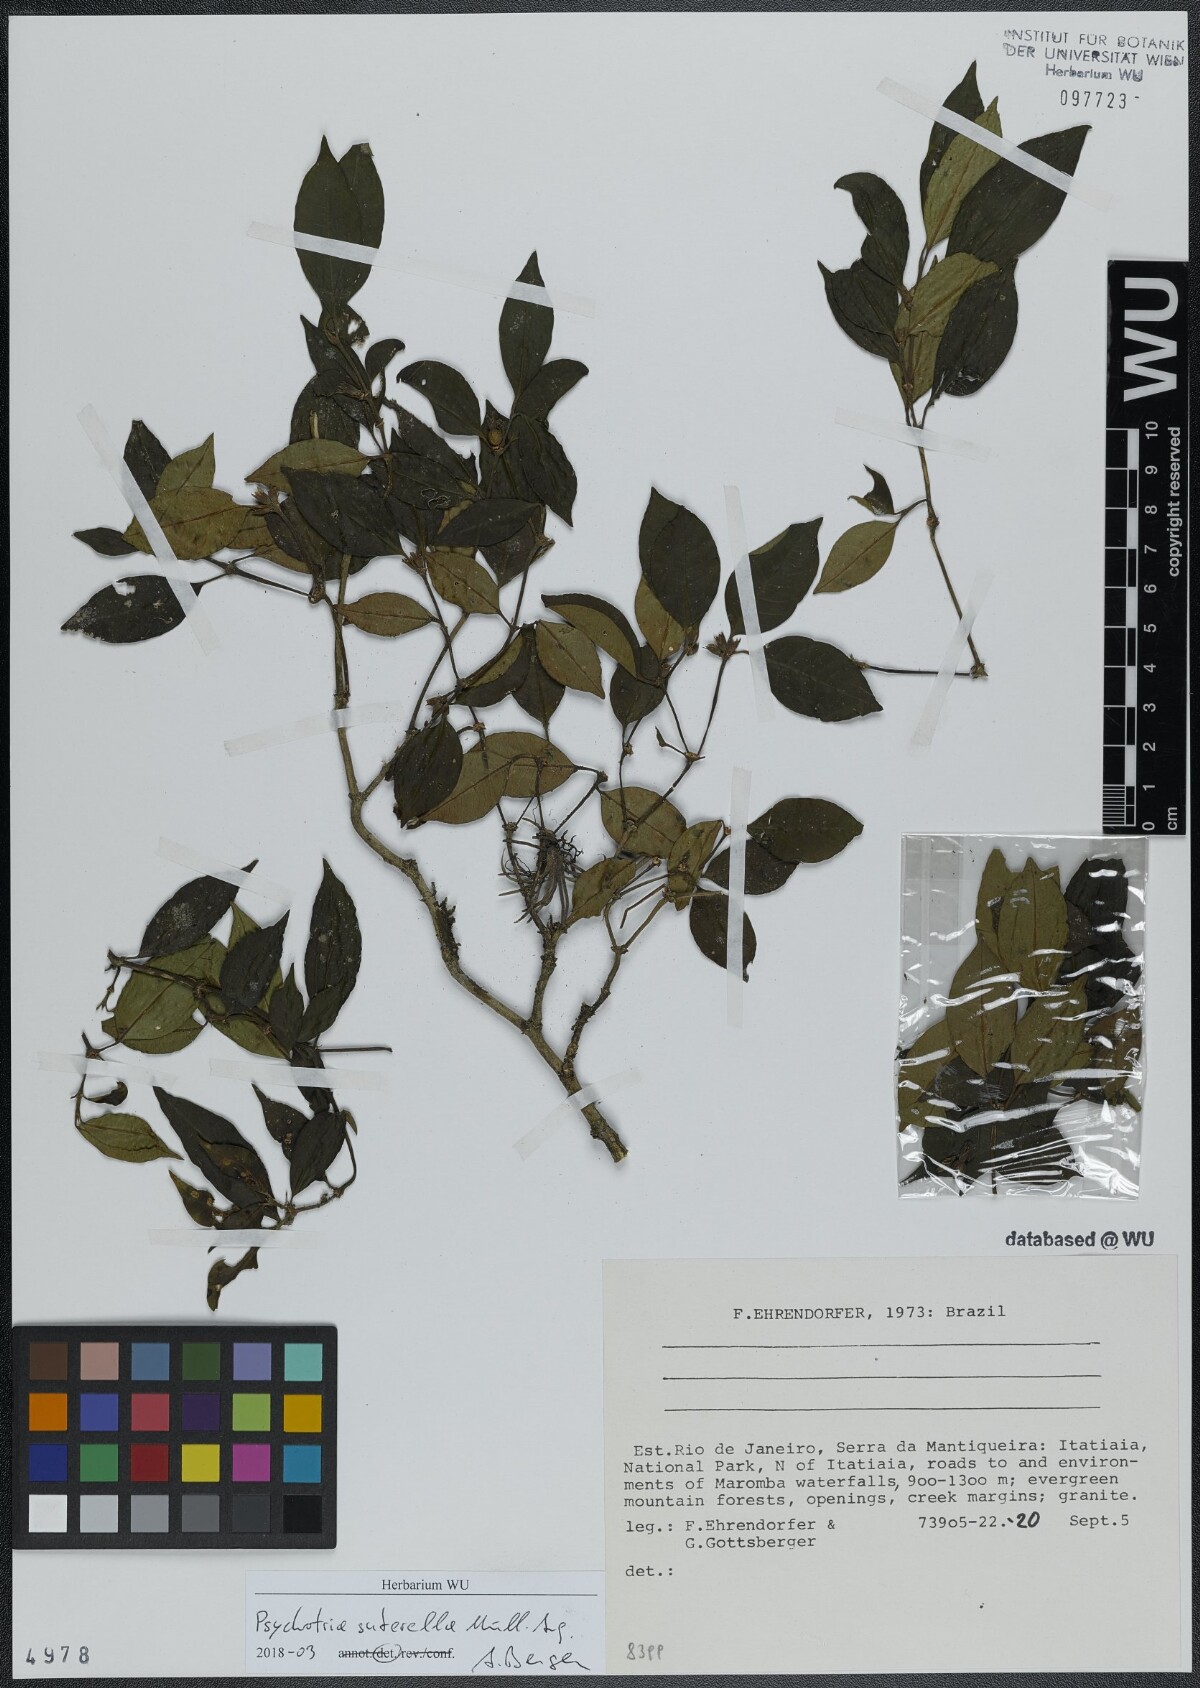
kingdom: Plantae
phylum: Tracheophyta
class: Magnoliopsida
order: Gentianales
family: Rubiaceae
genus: Psychotria
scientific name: Psychotria suterella
